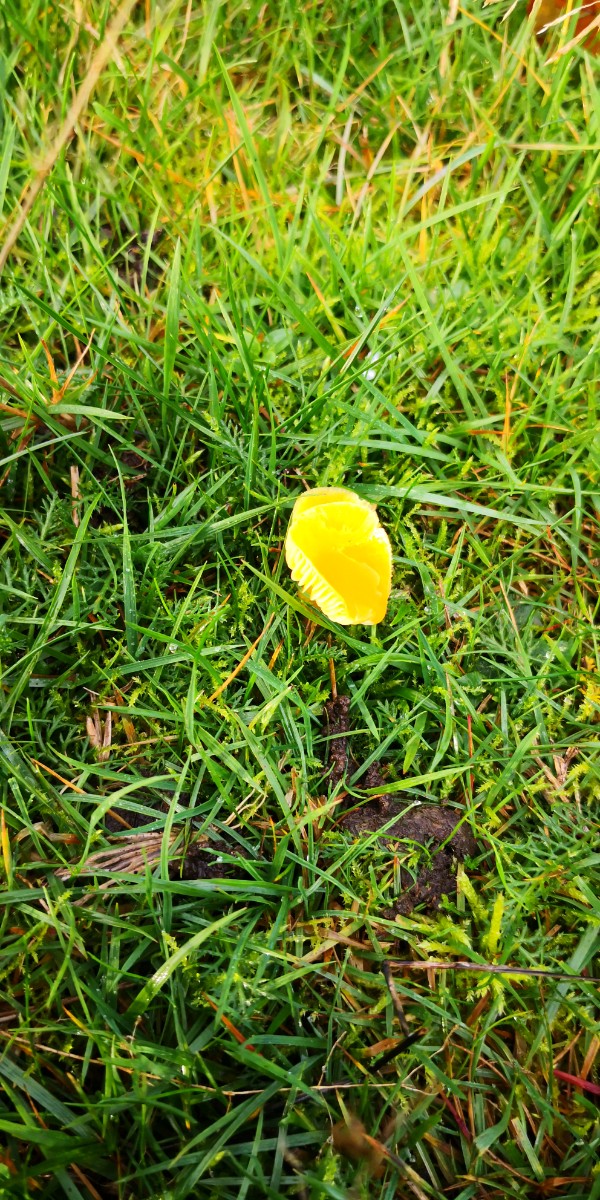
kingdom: Fungi
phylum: Basidiomycota
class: Agaricomycetes
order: Agaricales
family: Hygrophoraceae
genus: Hygrocybe
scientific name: Hygrocybe ceracea
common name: voksgul vokshat
